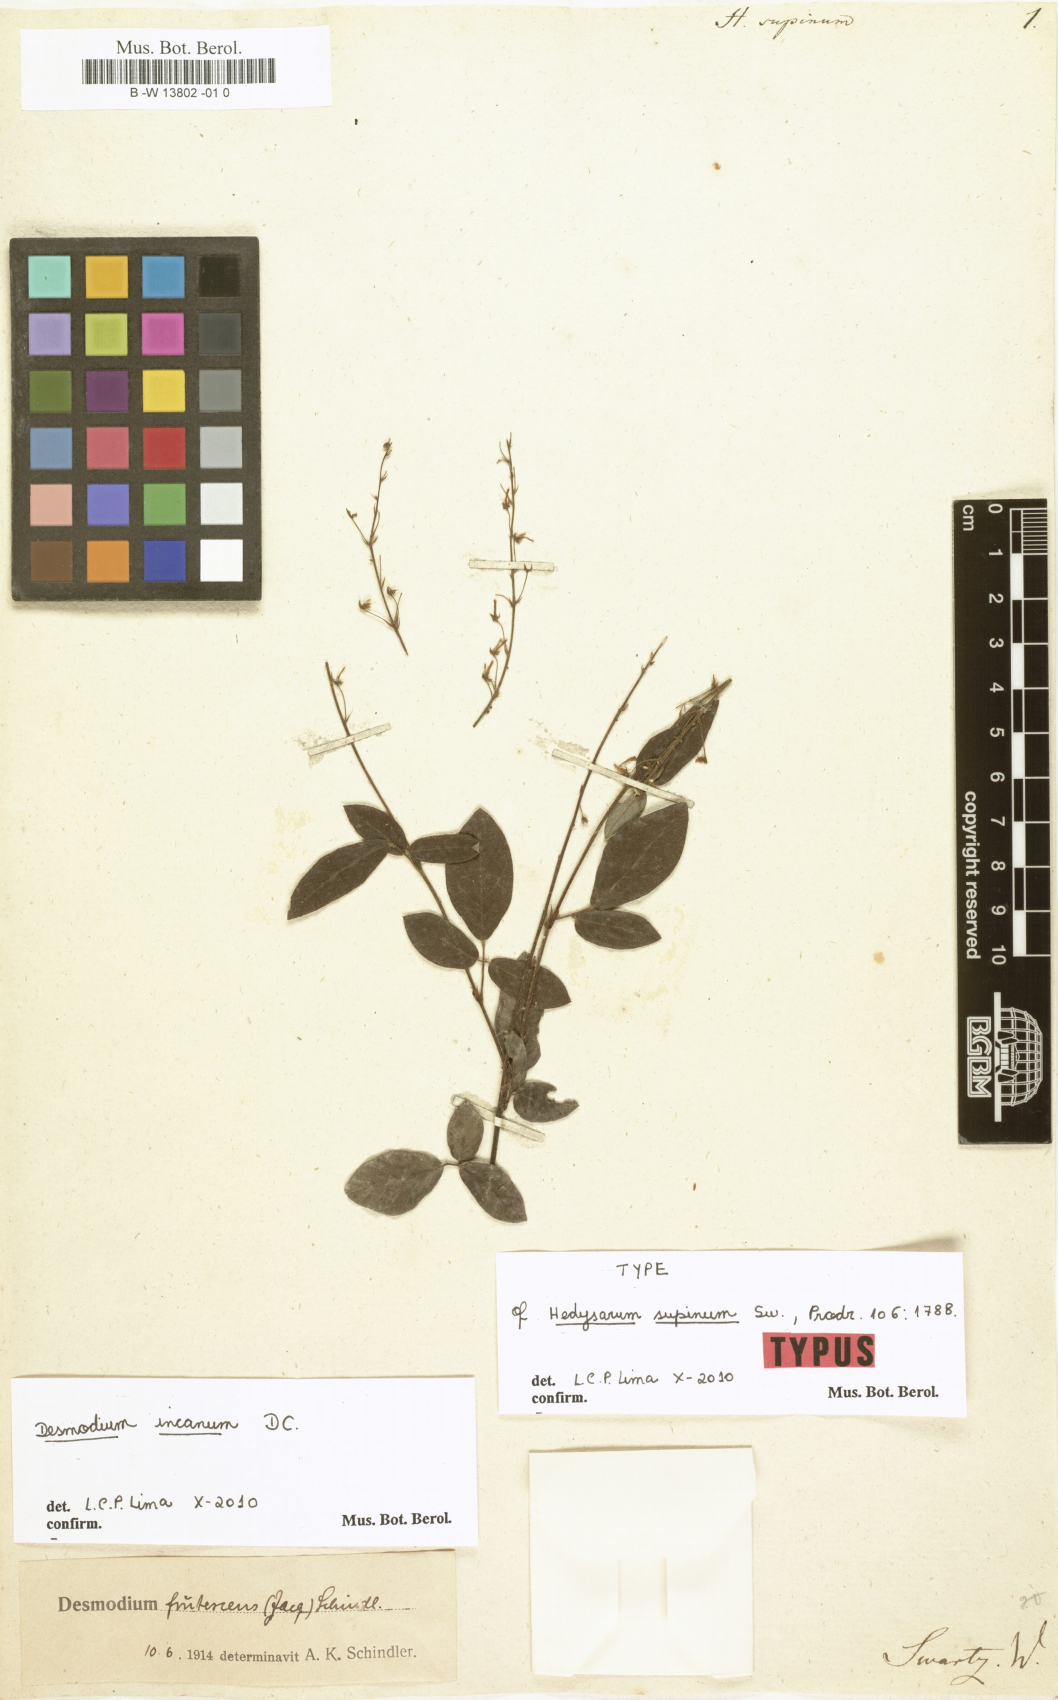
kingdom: Plantae
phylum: Tracheophyta
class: Magnoliopsida
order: Fabales
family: Fabaceae
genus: Desmodium
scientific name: Desmodium incanum
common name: Tickclover
